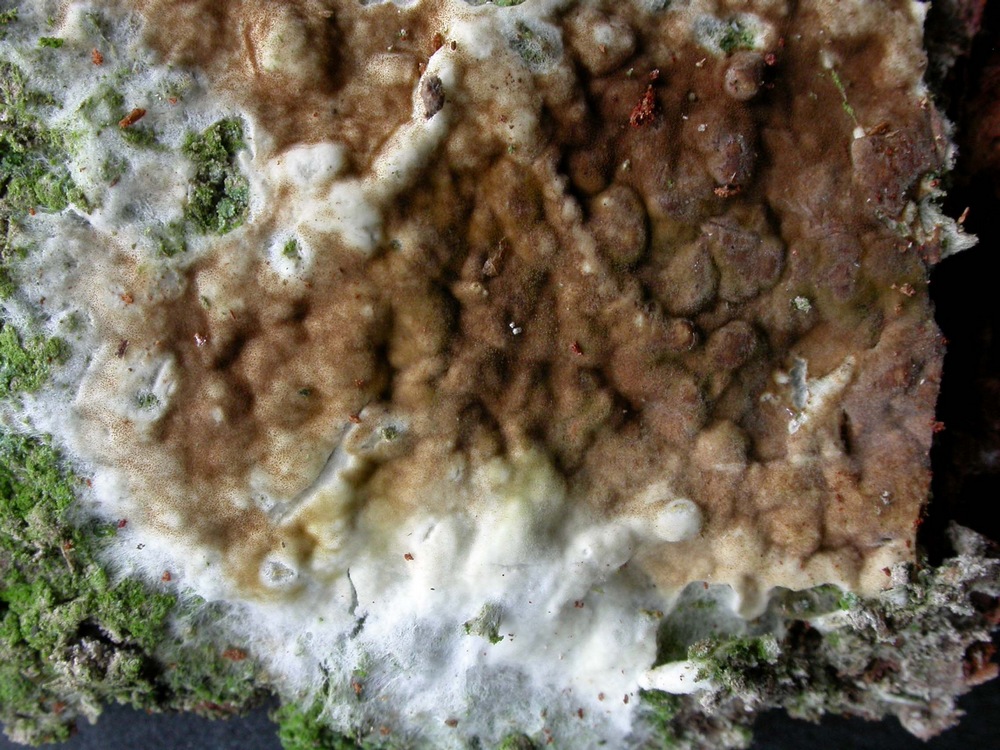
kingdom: Fungi
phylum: Basidiomycota
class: Agaricomycetes
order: Boletales
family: Coniophoraceae
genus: Coniophora
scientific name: Coniophora puteana
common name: gul tømmersvamp
